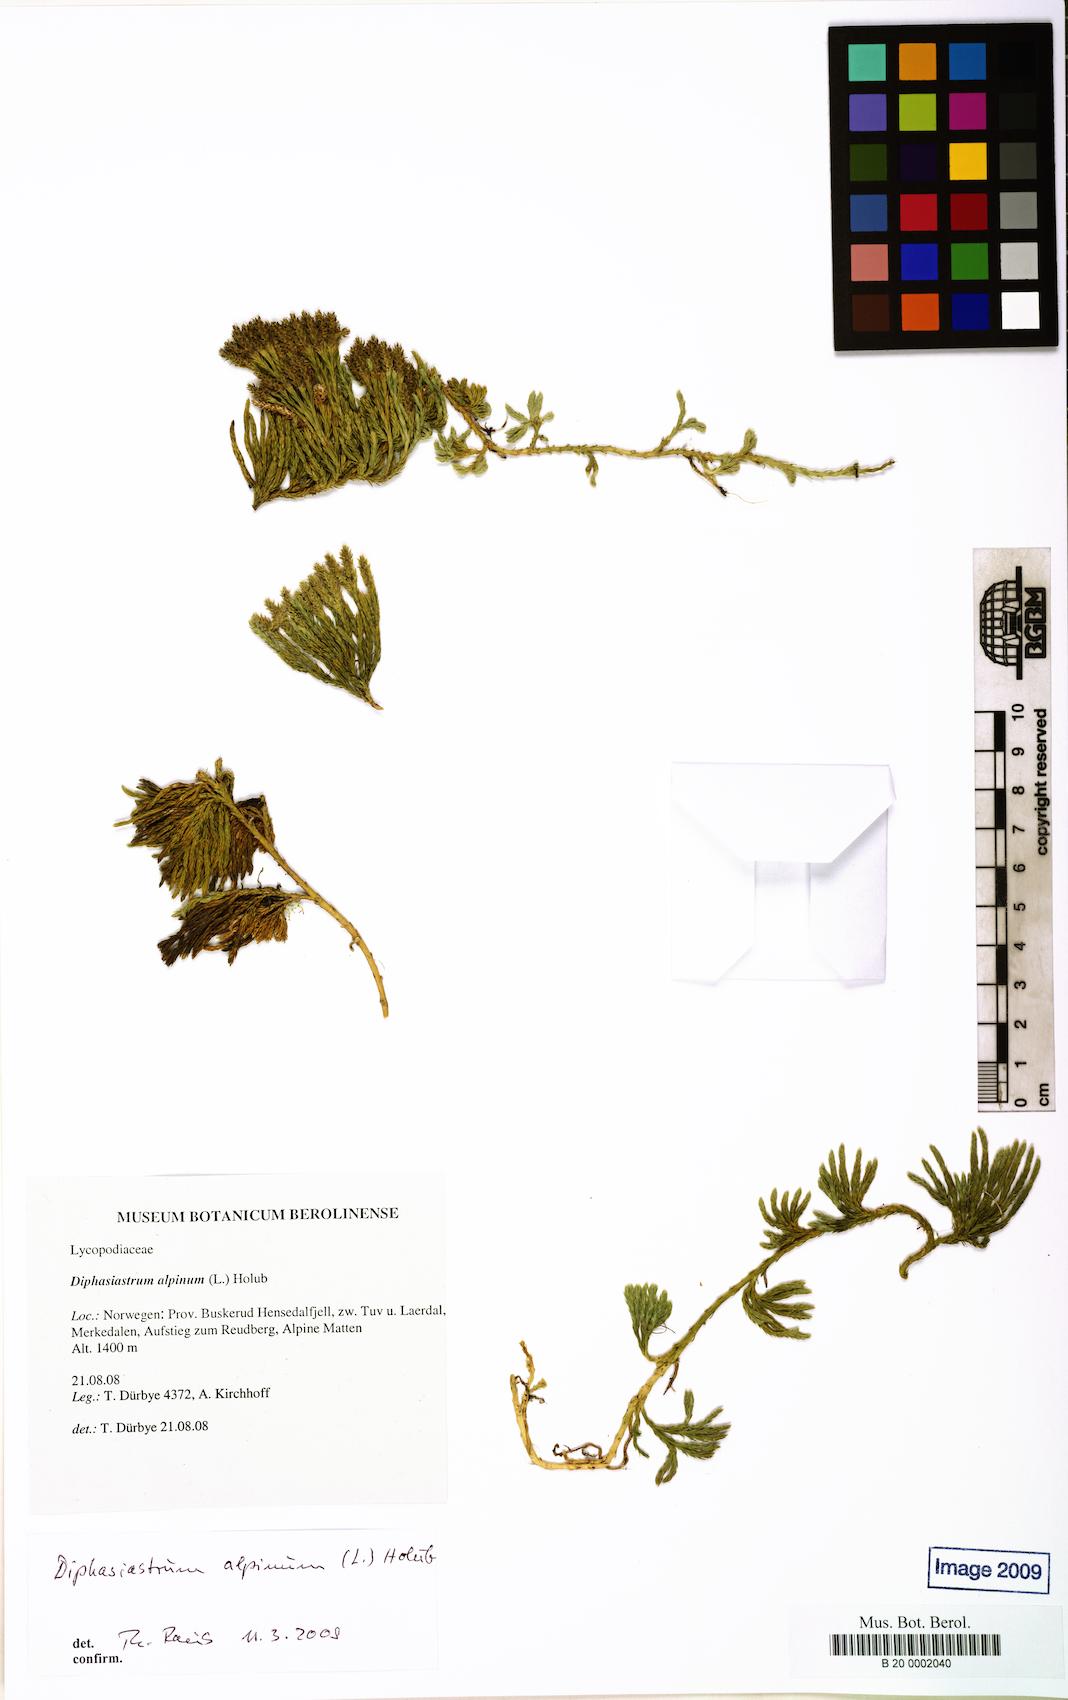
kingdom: Plantae
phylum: Tracheophyta
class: Lycopodiopsida
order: Lycopodiales
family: Lycopodiaceae
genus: Diphasiastrum
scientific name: Diphasiastrum alpinum
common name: Alpine clubmoss
